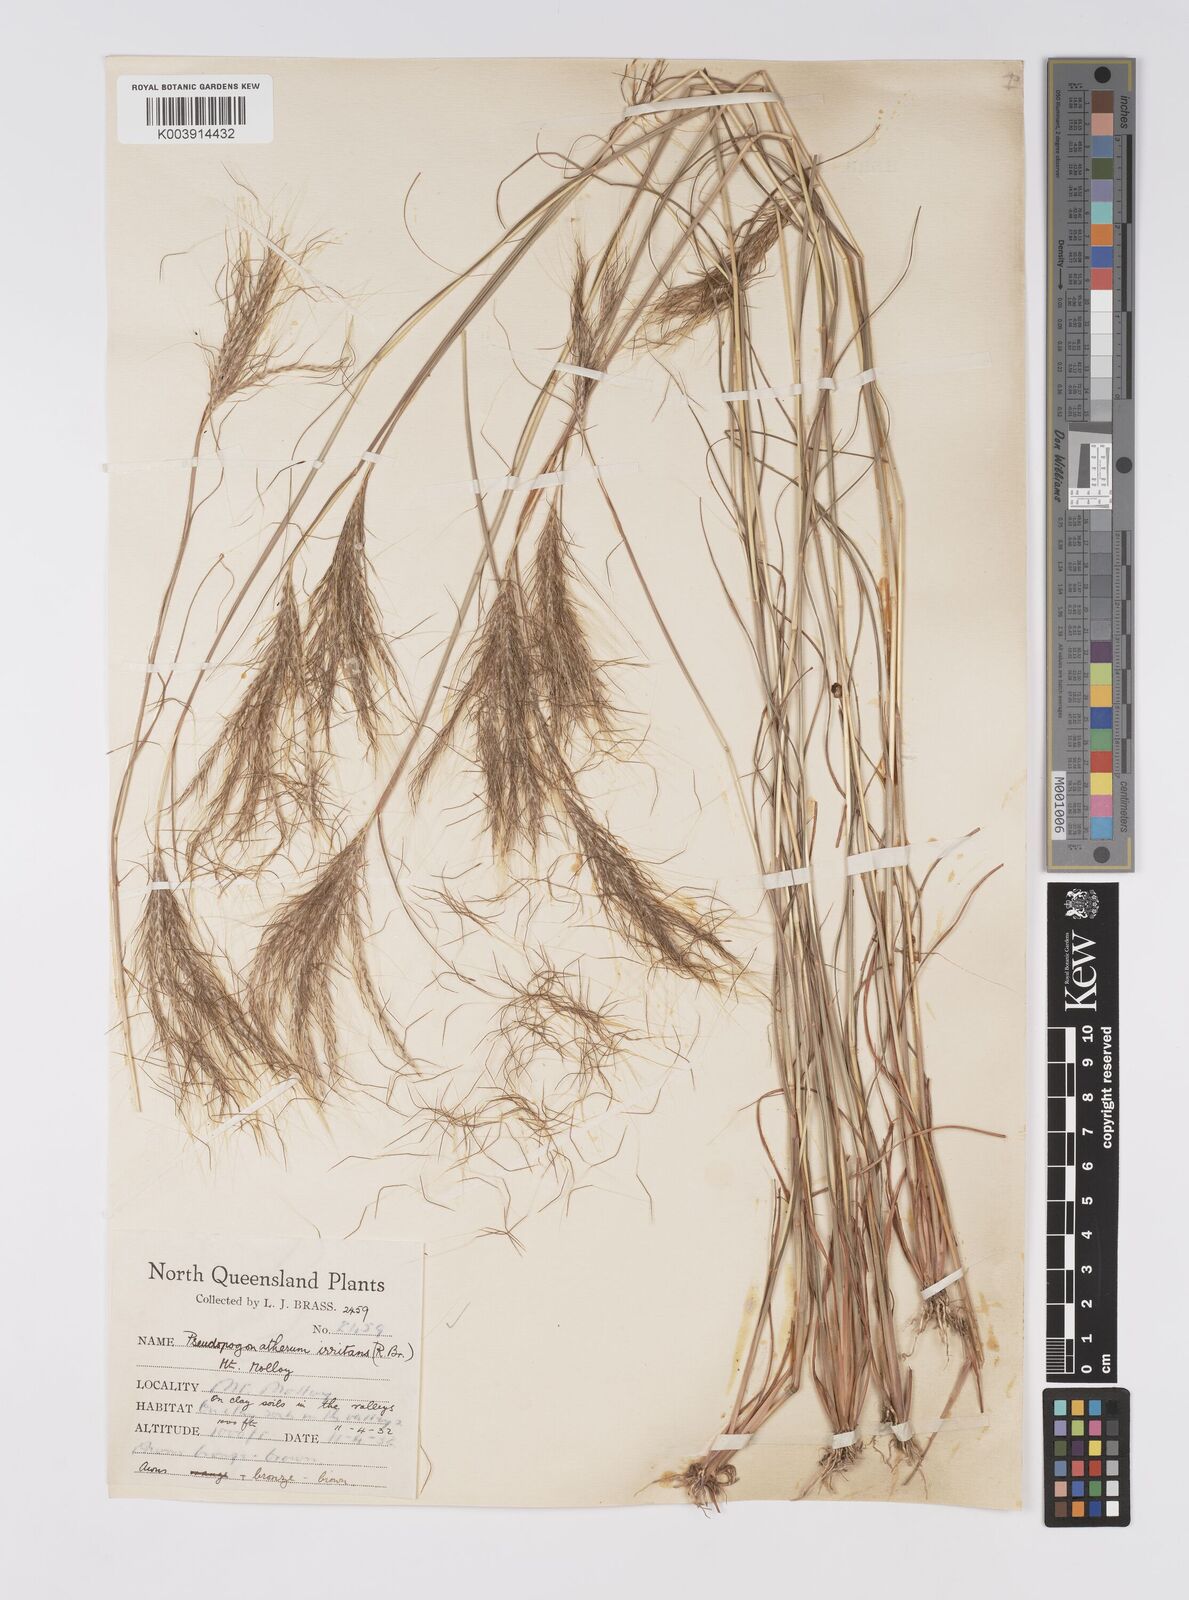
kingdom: Plantae
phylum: Tracheophyta
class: Liliopsida
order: Poales
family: Poaceae
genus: Pseudopogonatherum
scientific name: Pseudopogonatherum irritans
